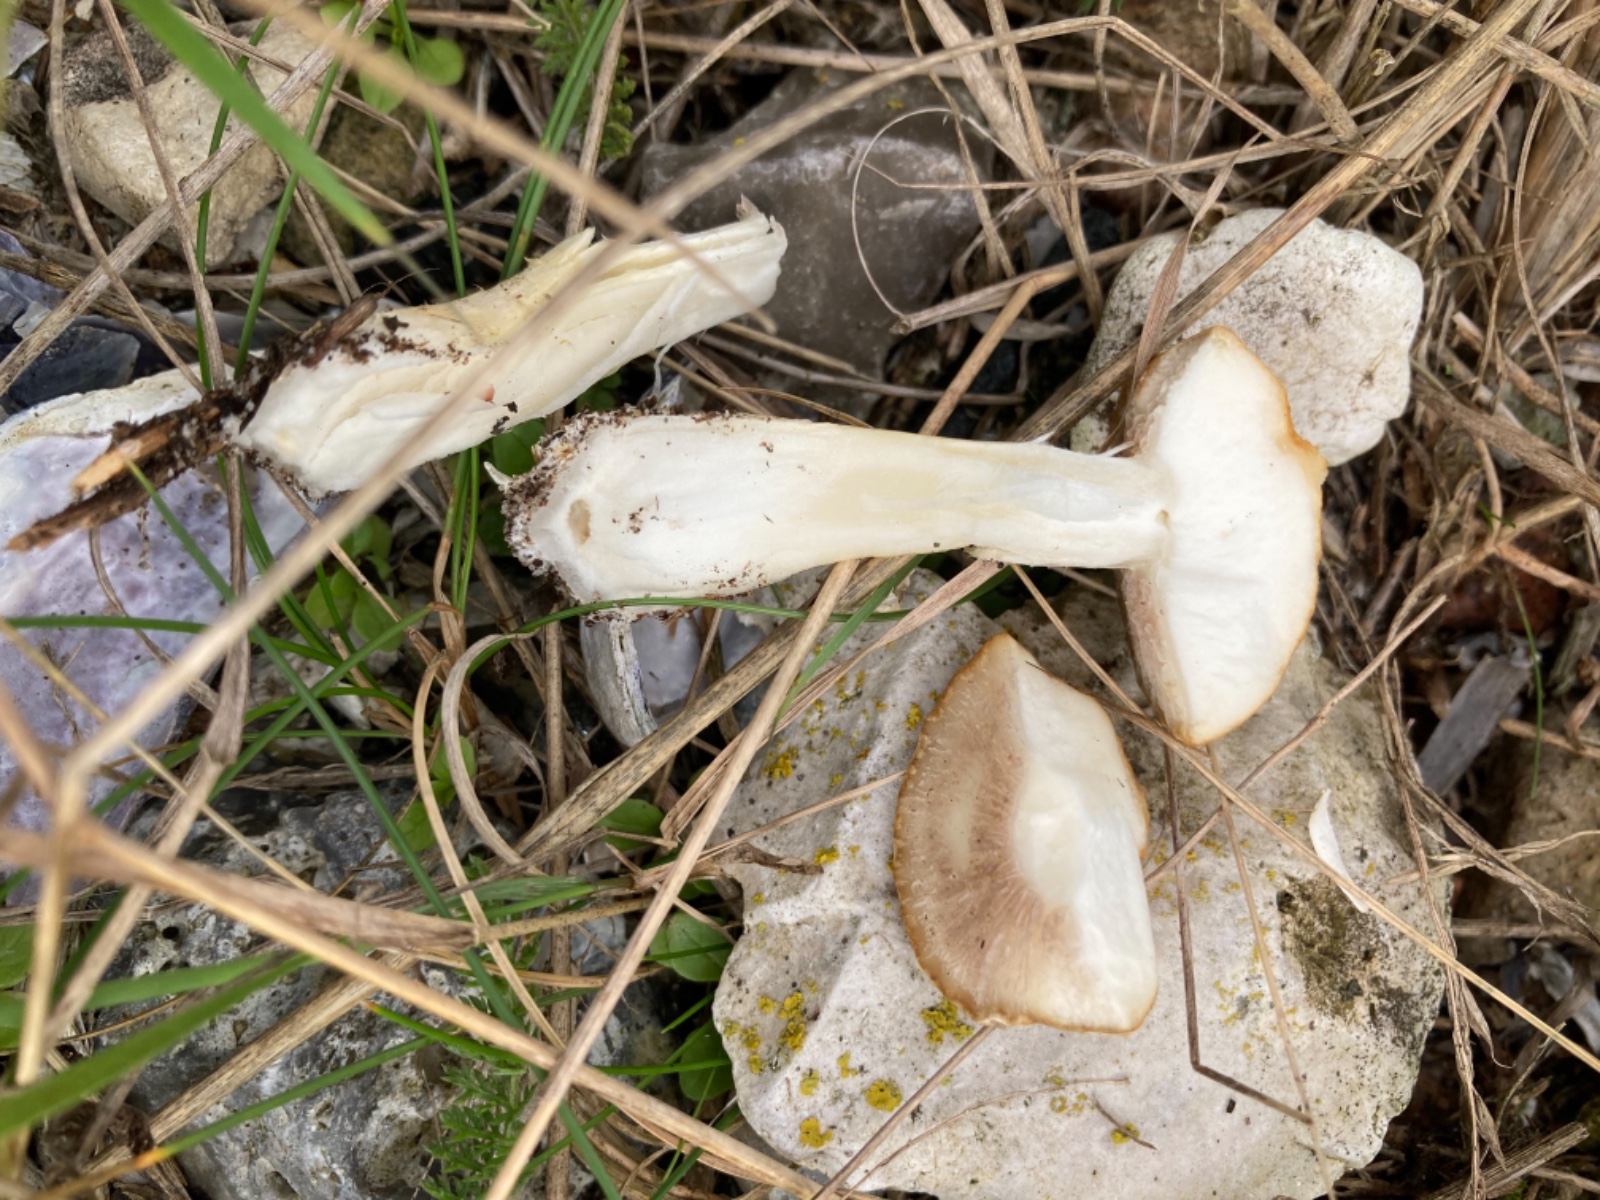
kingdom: Fungi
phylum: Basidiomycota
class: Agaricomycetes
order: Agaricales
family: Hymenogastraceae
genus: Psilocybe
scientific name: Psilocybe coronilla
